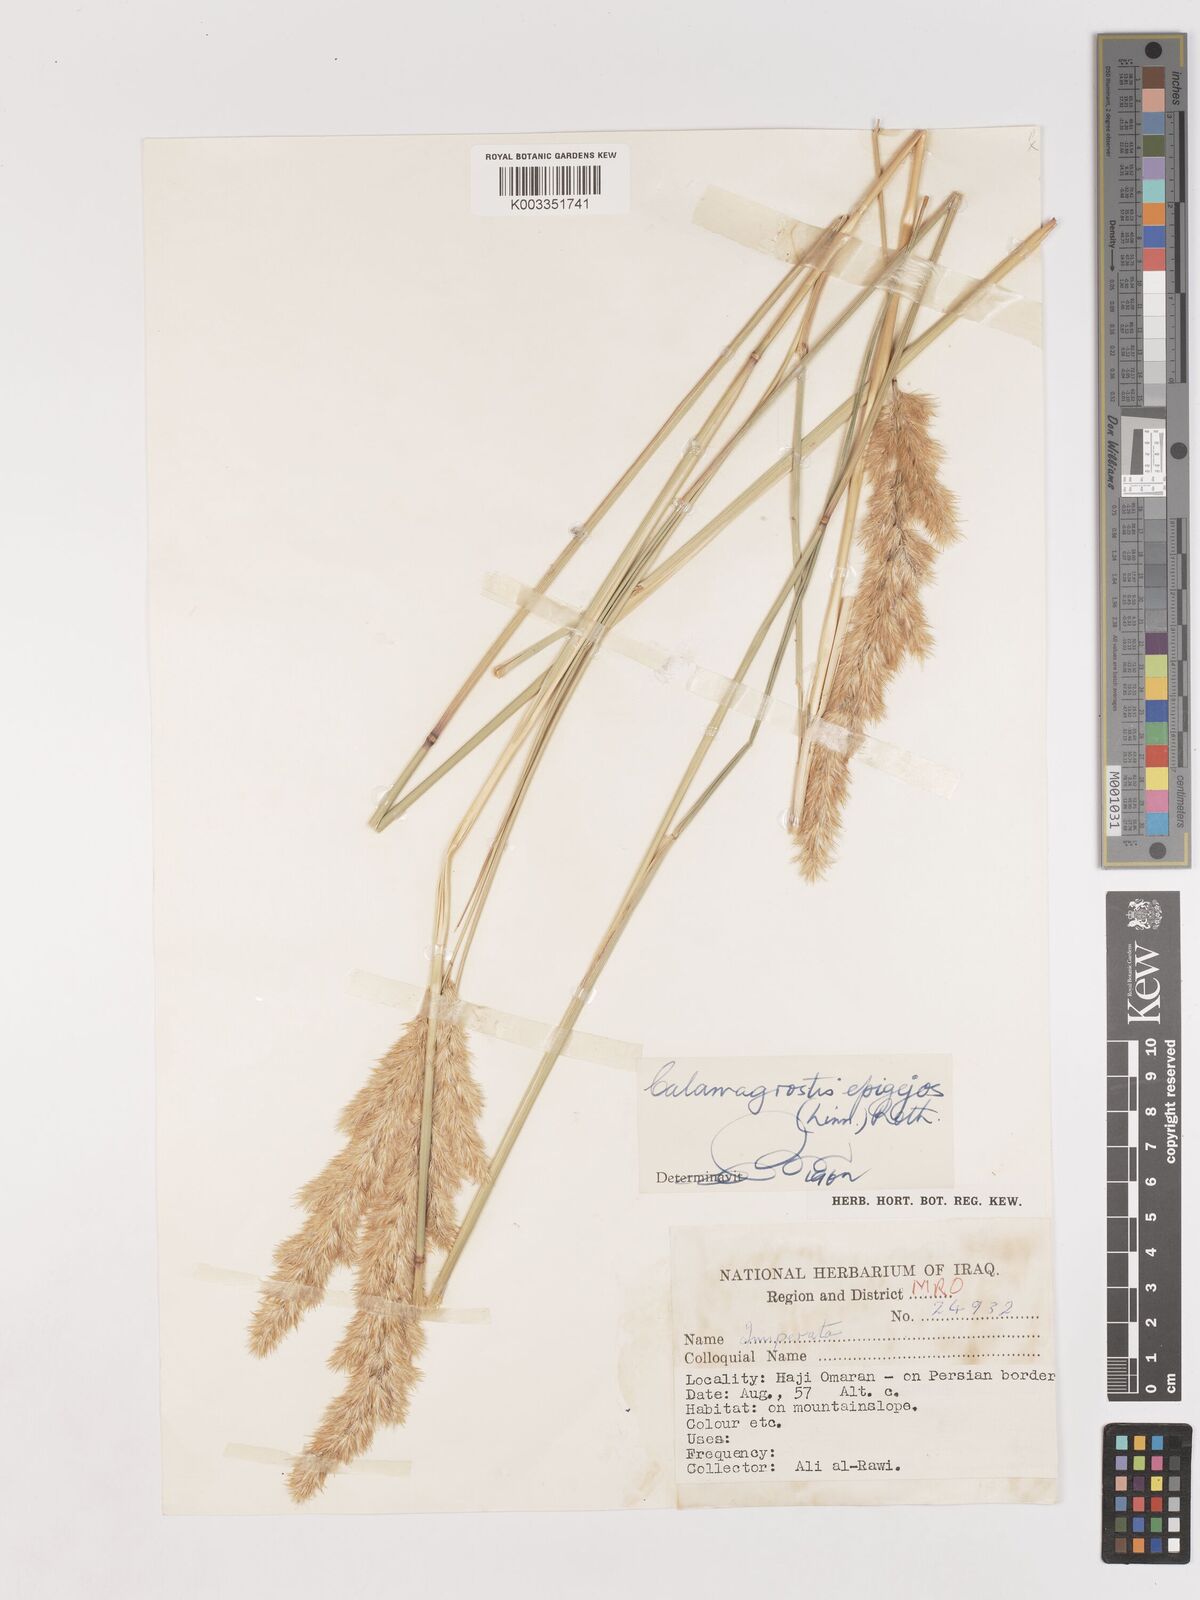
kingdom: Plantae
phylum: Tracheophyta
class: Liliopsida
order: Poales
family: Poaceae
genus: Calamagrostis
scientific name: Calamagrostis
